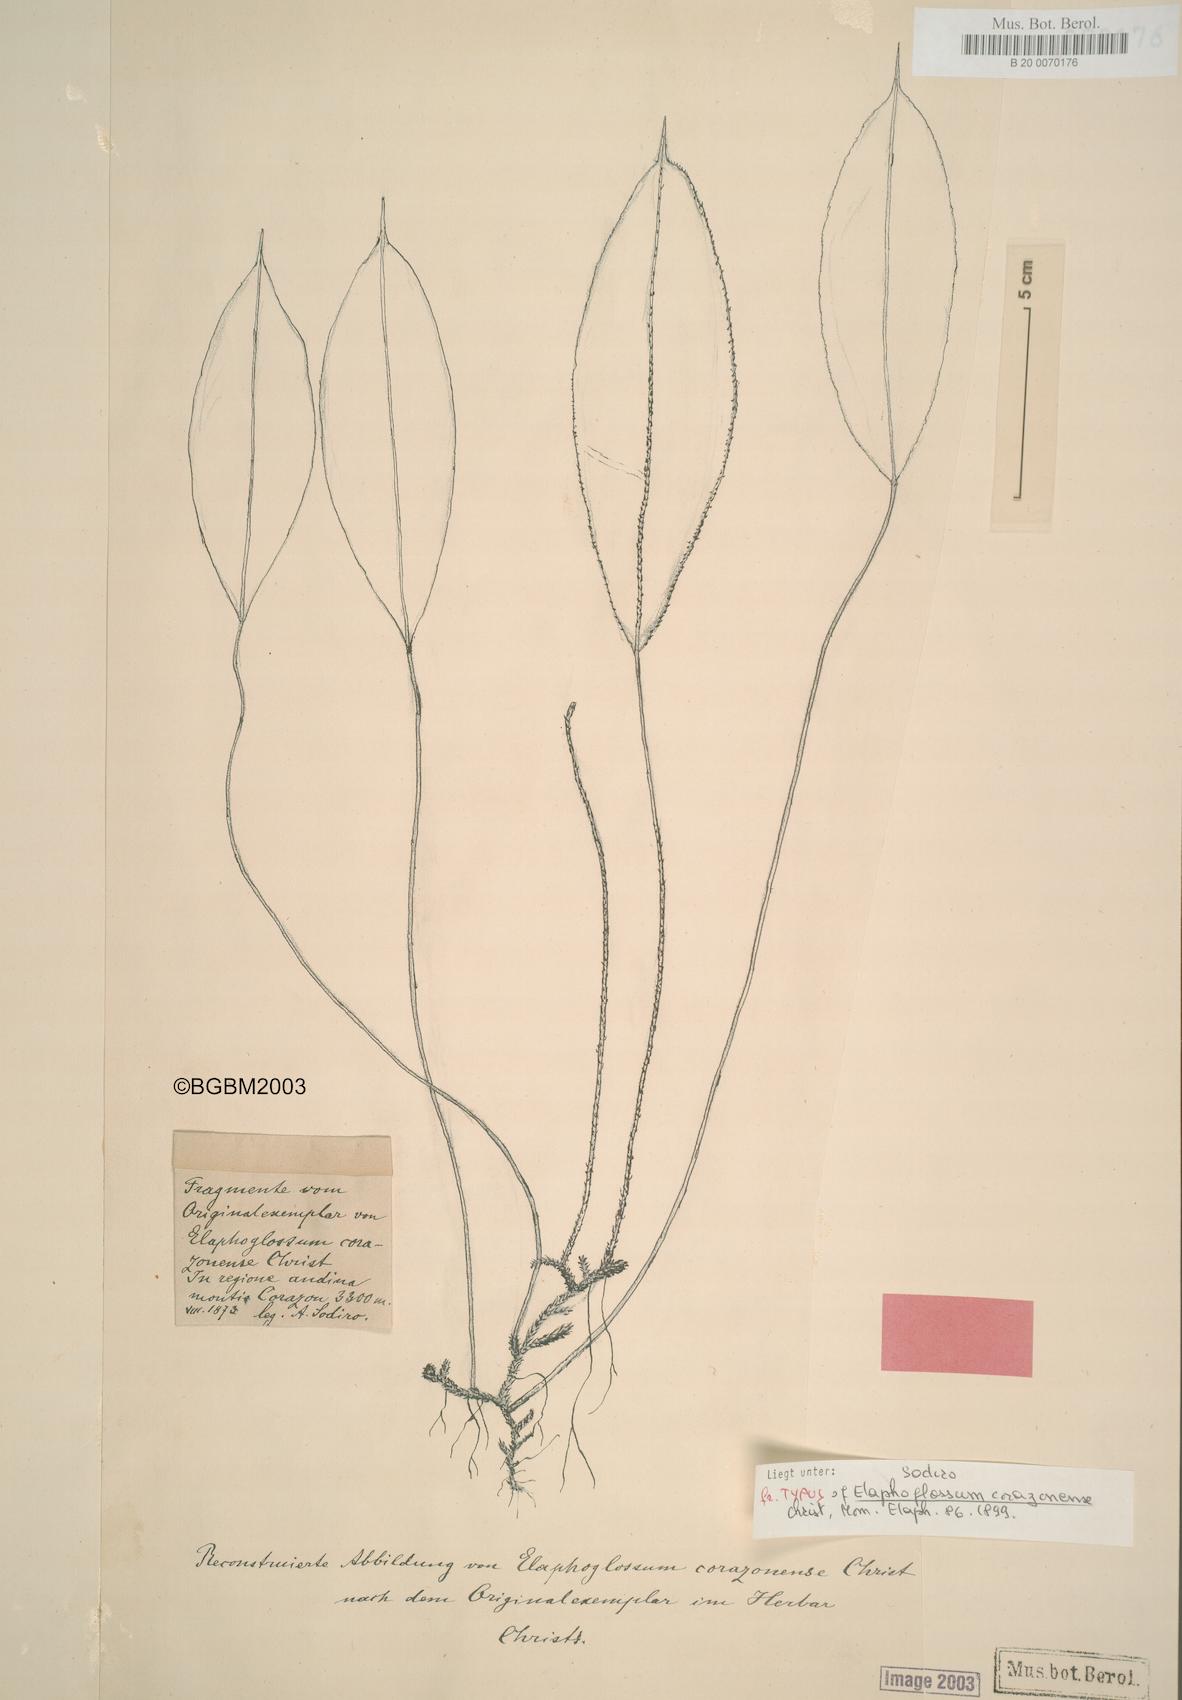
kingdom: Plantae
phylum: Tracheophyta
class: Polypodiopsida
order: Polypodiales
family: Dryopteridaceae
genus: Elaphoglossum
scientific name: Elaphoglossum corazonense
